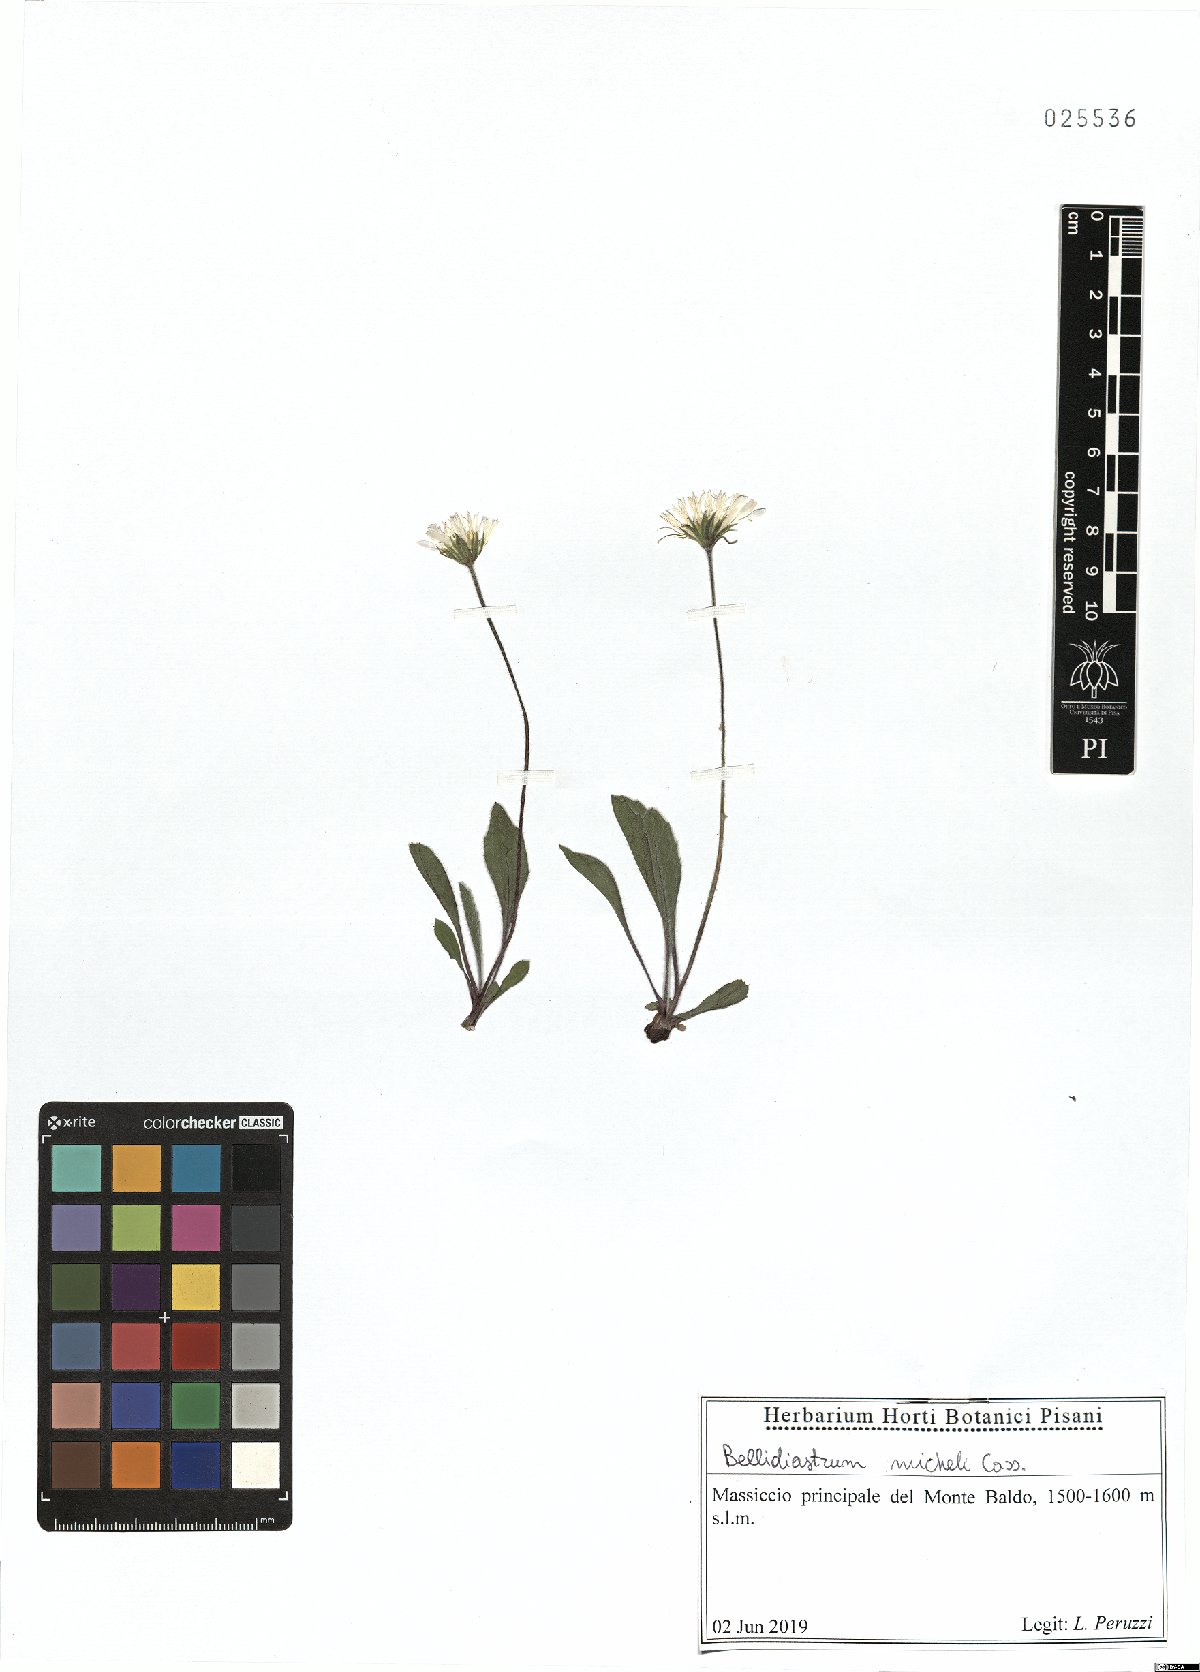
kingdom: Plantae
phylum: Tracheophyta
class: Magnoliopsida
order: Asterales
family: Asteraceae
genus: Bellidiastrum
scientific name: Bellidiastrum michelii
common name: Daisy-star aster
